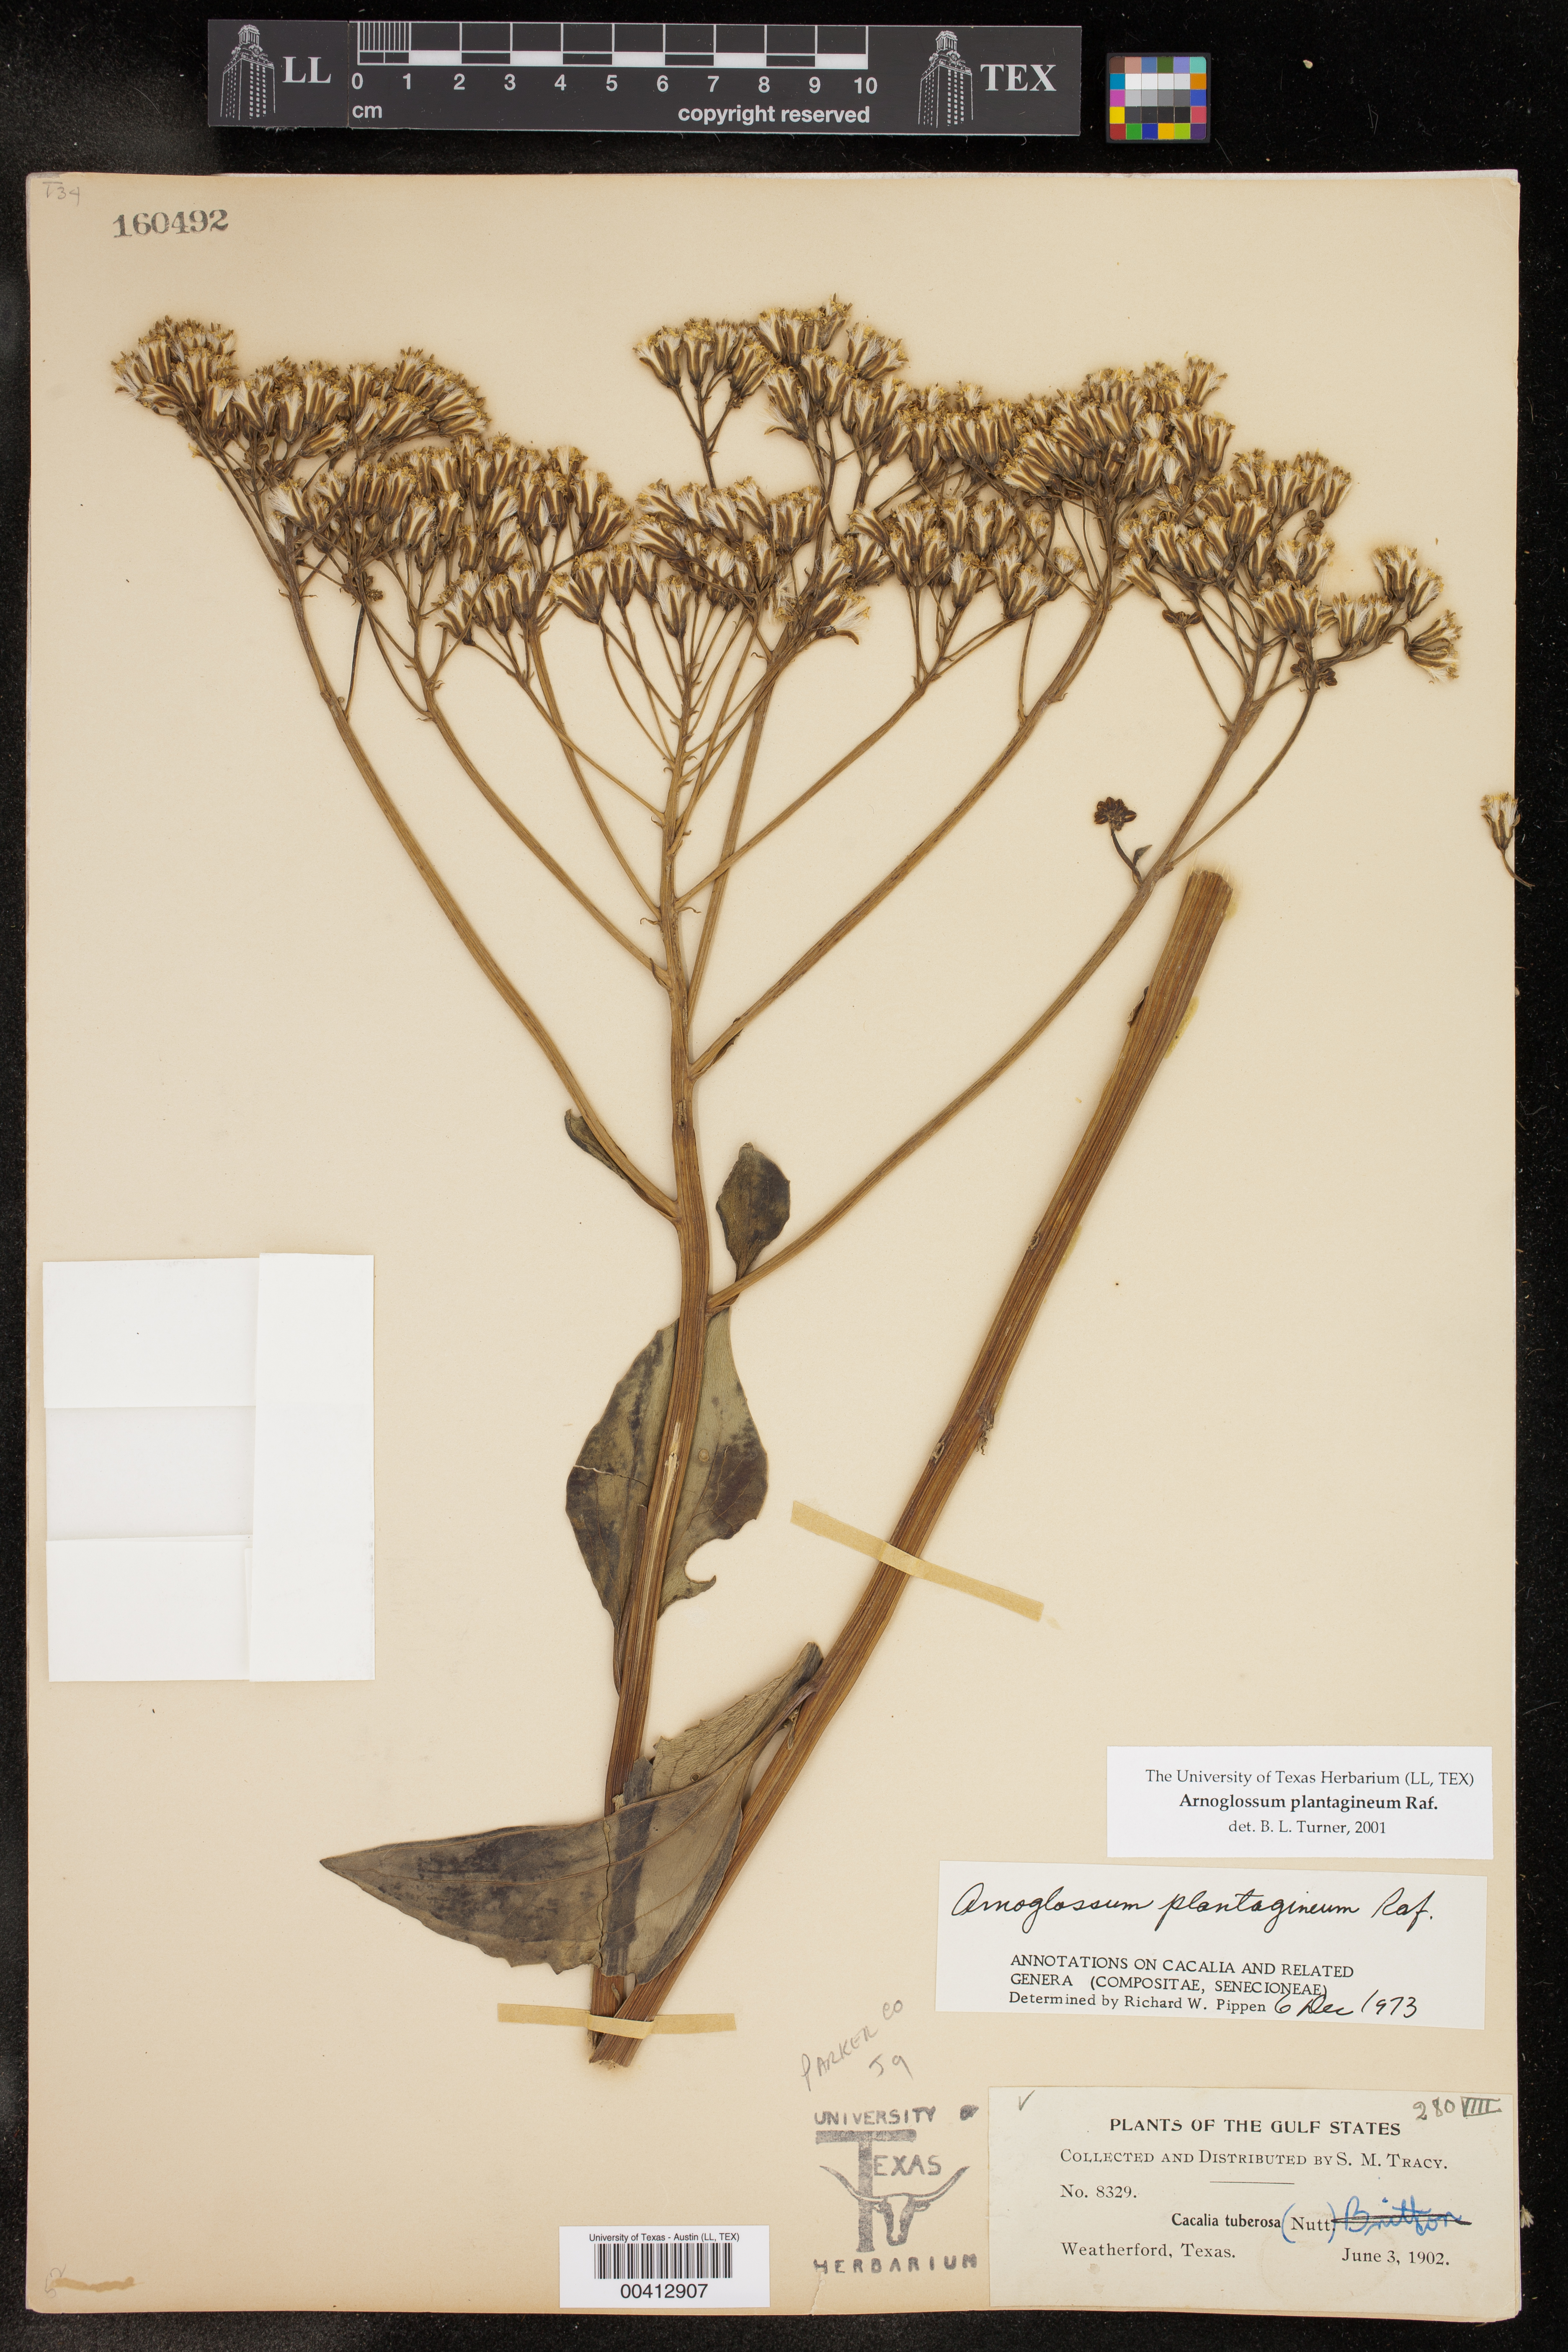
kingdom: Plantae
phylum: Tracheophyta
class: Magnoliopsida
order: Asterales
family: Asteraceae
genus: Arnoglossum
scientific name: Arnoglossum plantagineum
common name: Groove-stemmed indian-plantain
